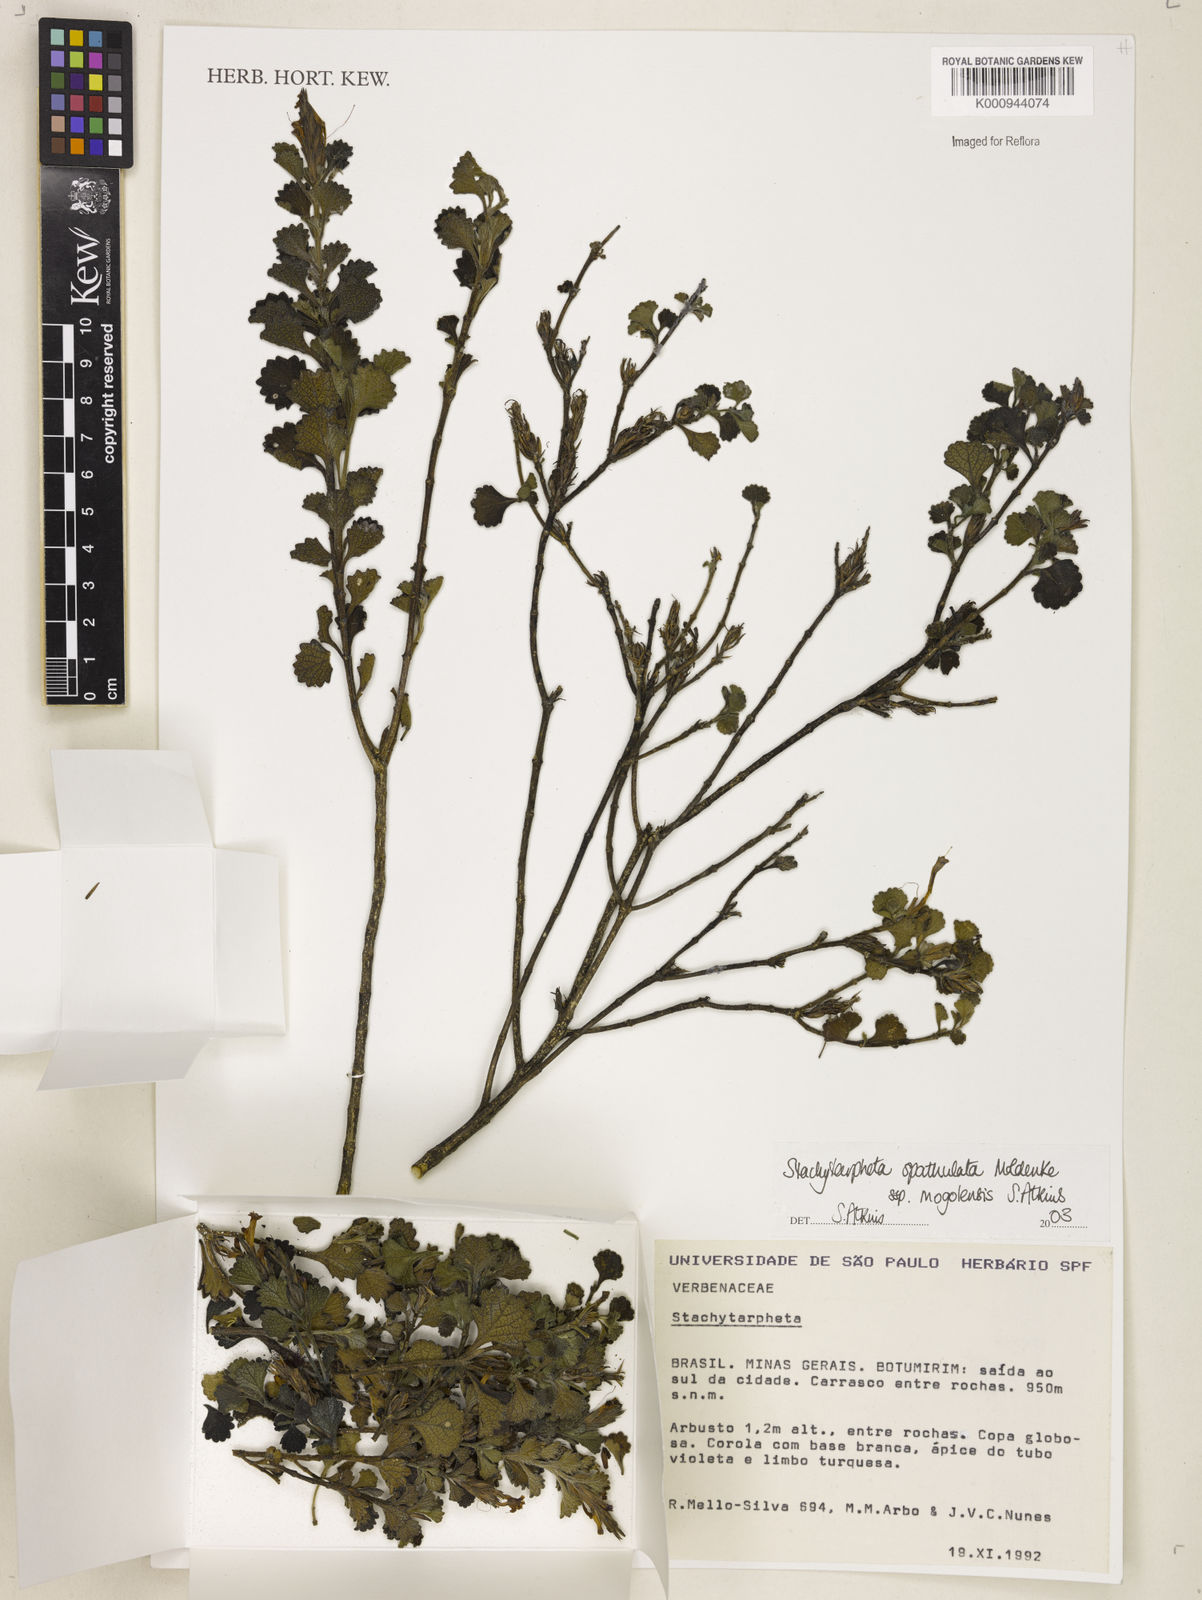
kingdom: Plantae
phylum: Tracheophyta
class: Magnoliopsida
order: Lamiales
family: Verbenaceae
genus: Stachytarpheta
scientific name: Stachytarpheta spathulata
